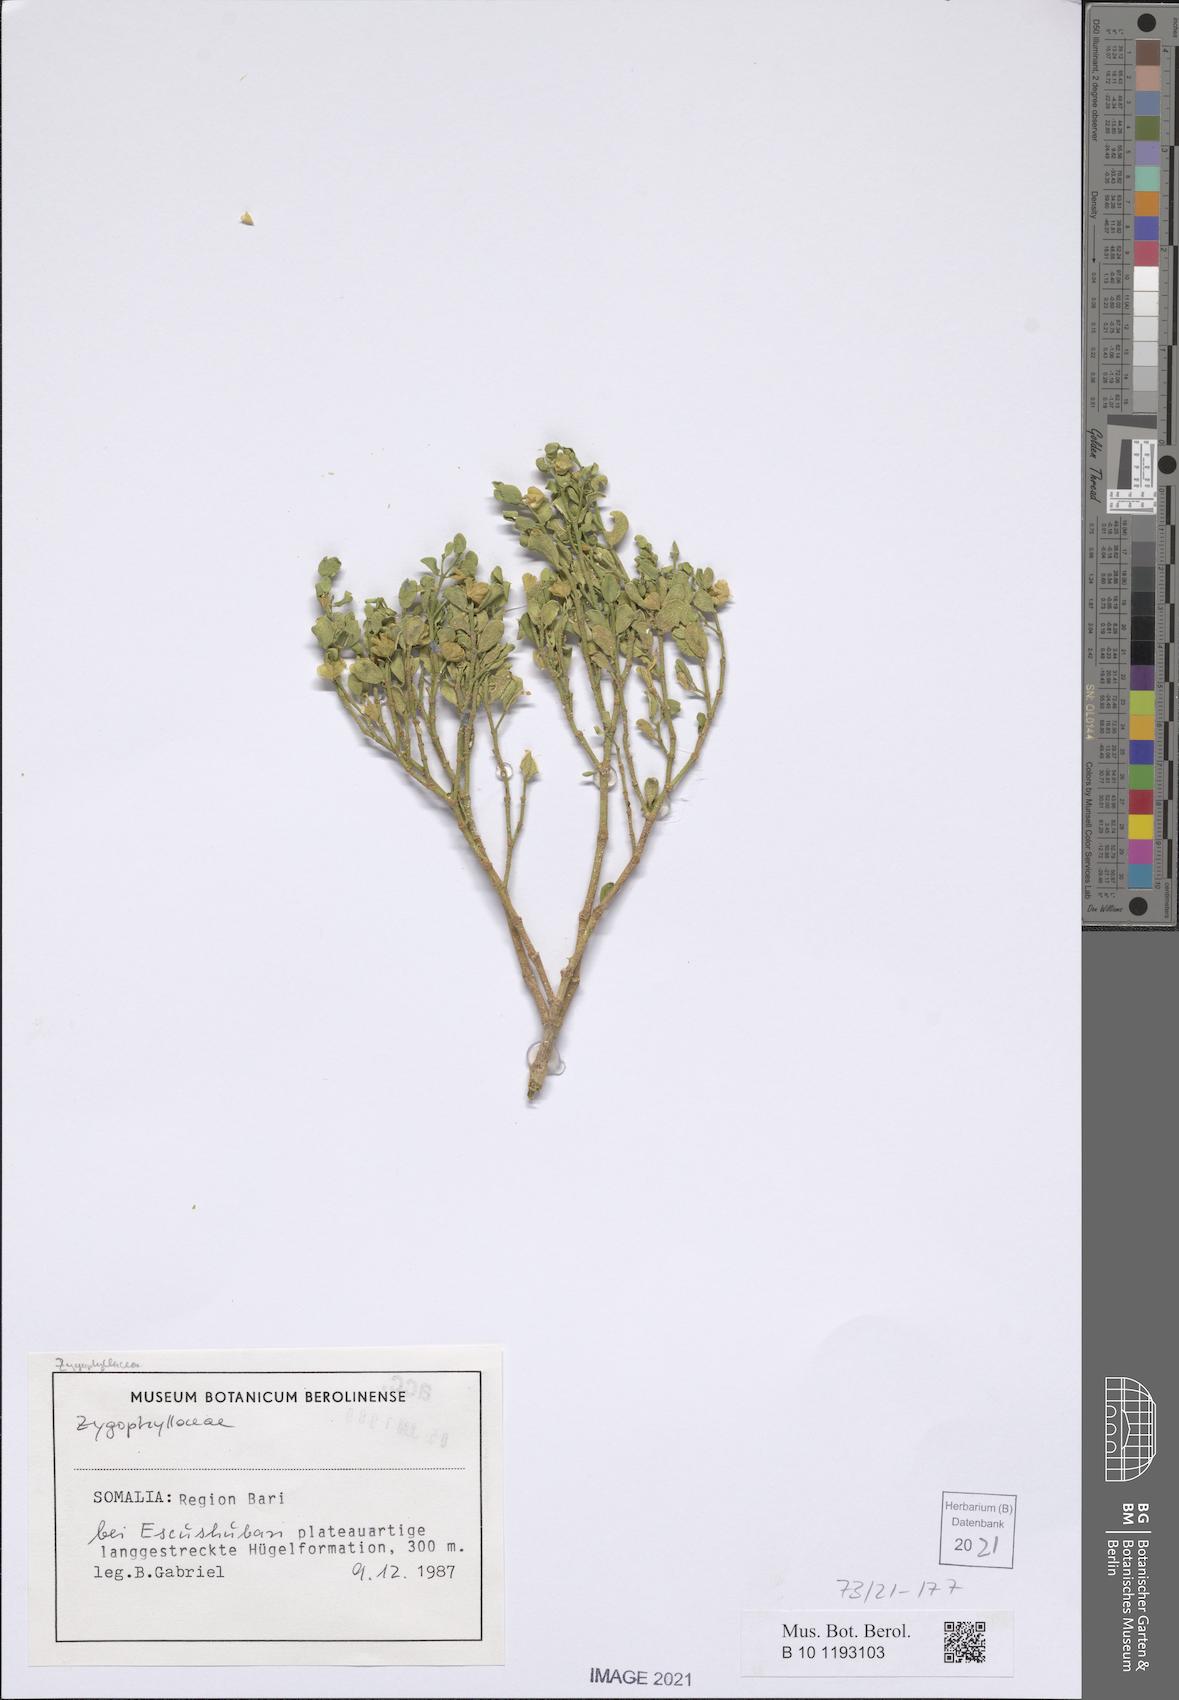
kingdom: Plantae
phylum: Tracheophyta
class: Magnoliopsida
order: Zygophyllales
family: Zygophyllaceae
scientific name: Zygophyllaceae
